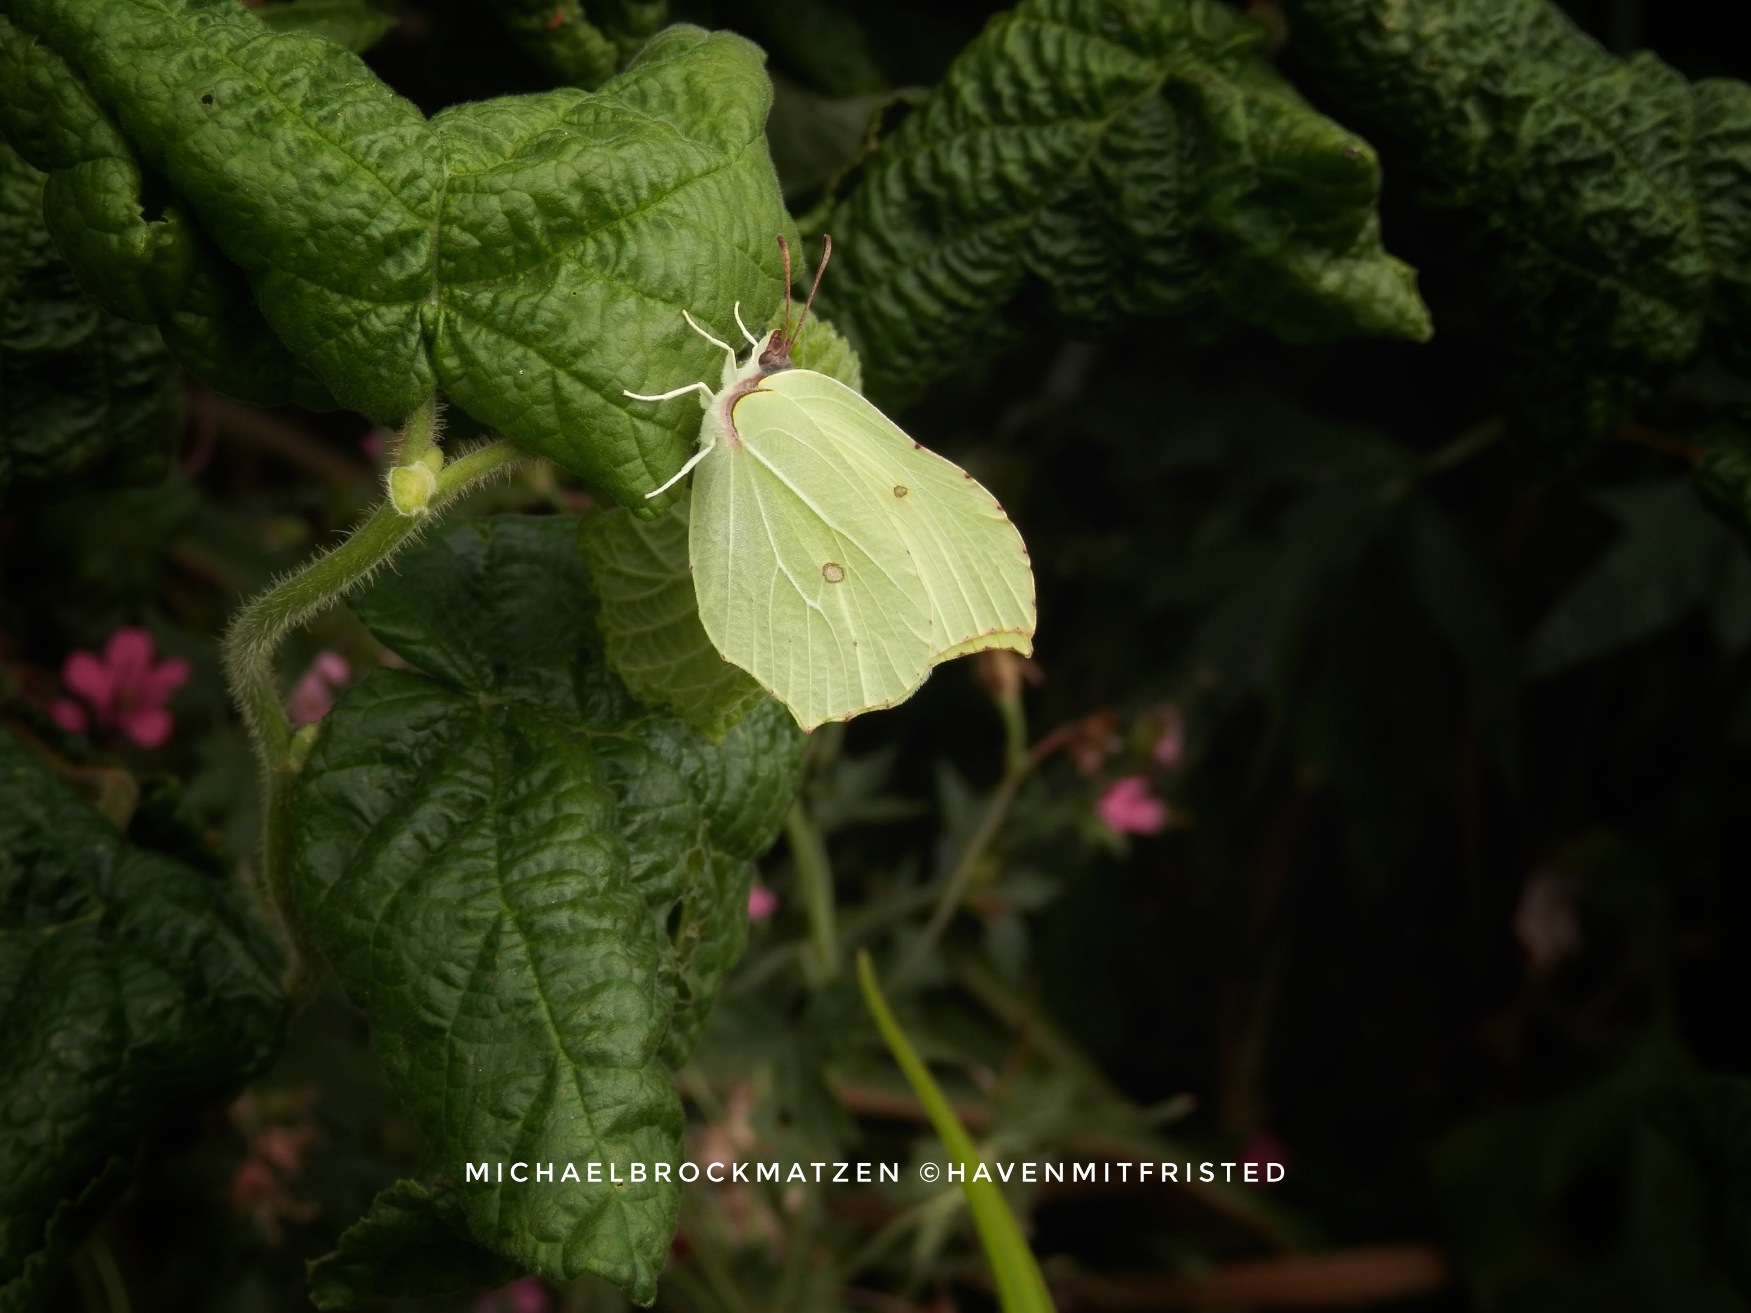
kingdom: Animalia
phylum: Arthropoda
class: Insecta
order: Lepidoptera
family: Pieridae
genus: Gonepteryx
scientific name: Gonepteryx rhamni
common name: Citronsommerfugl
